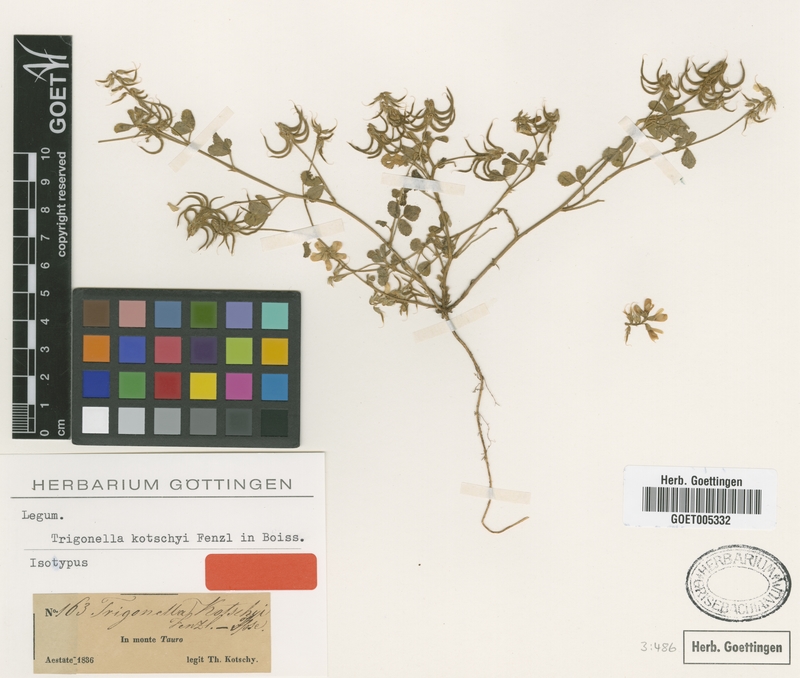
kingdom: Plantae
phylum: Tracheophyta
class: Magnoliopsida
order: Fabales
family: Fabaceae
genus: Trigonella
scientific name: Trigonella kotschyi
